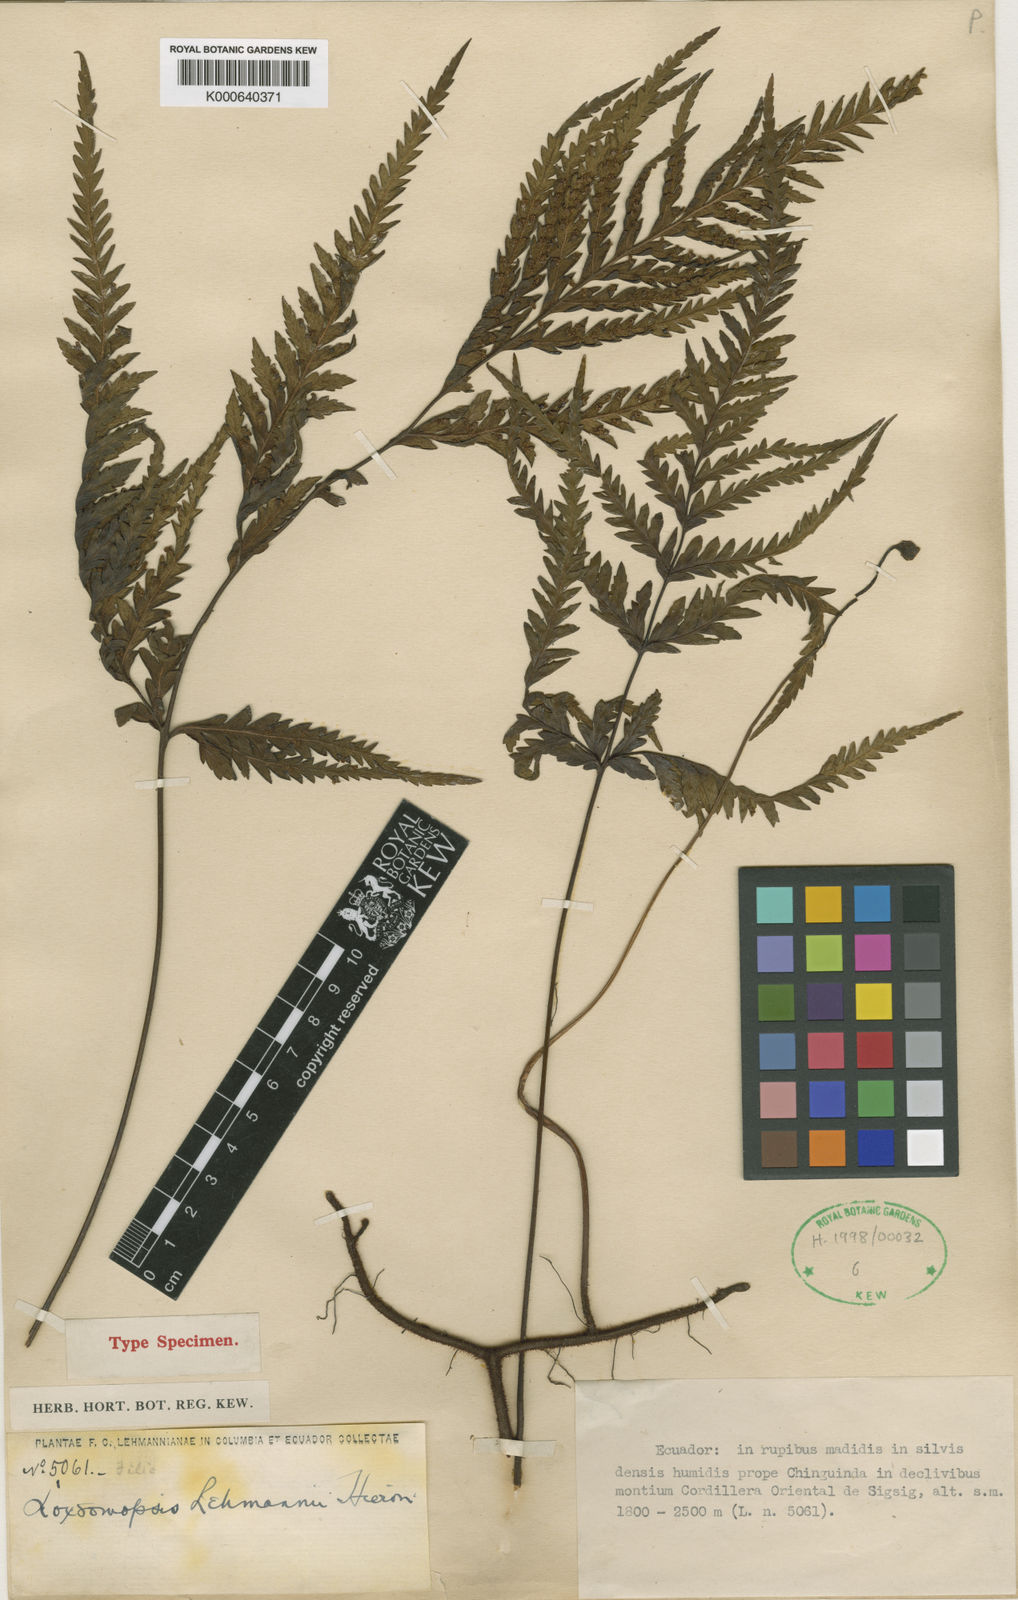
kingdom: Plantae
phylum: Tracheophyta
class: Polypodiopsida
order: Cyatheales
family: Loxsomataceae
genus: Loxsomopsis
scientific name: Loxsomopsis pearcei
